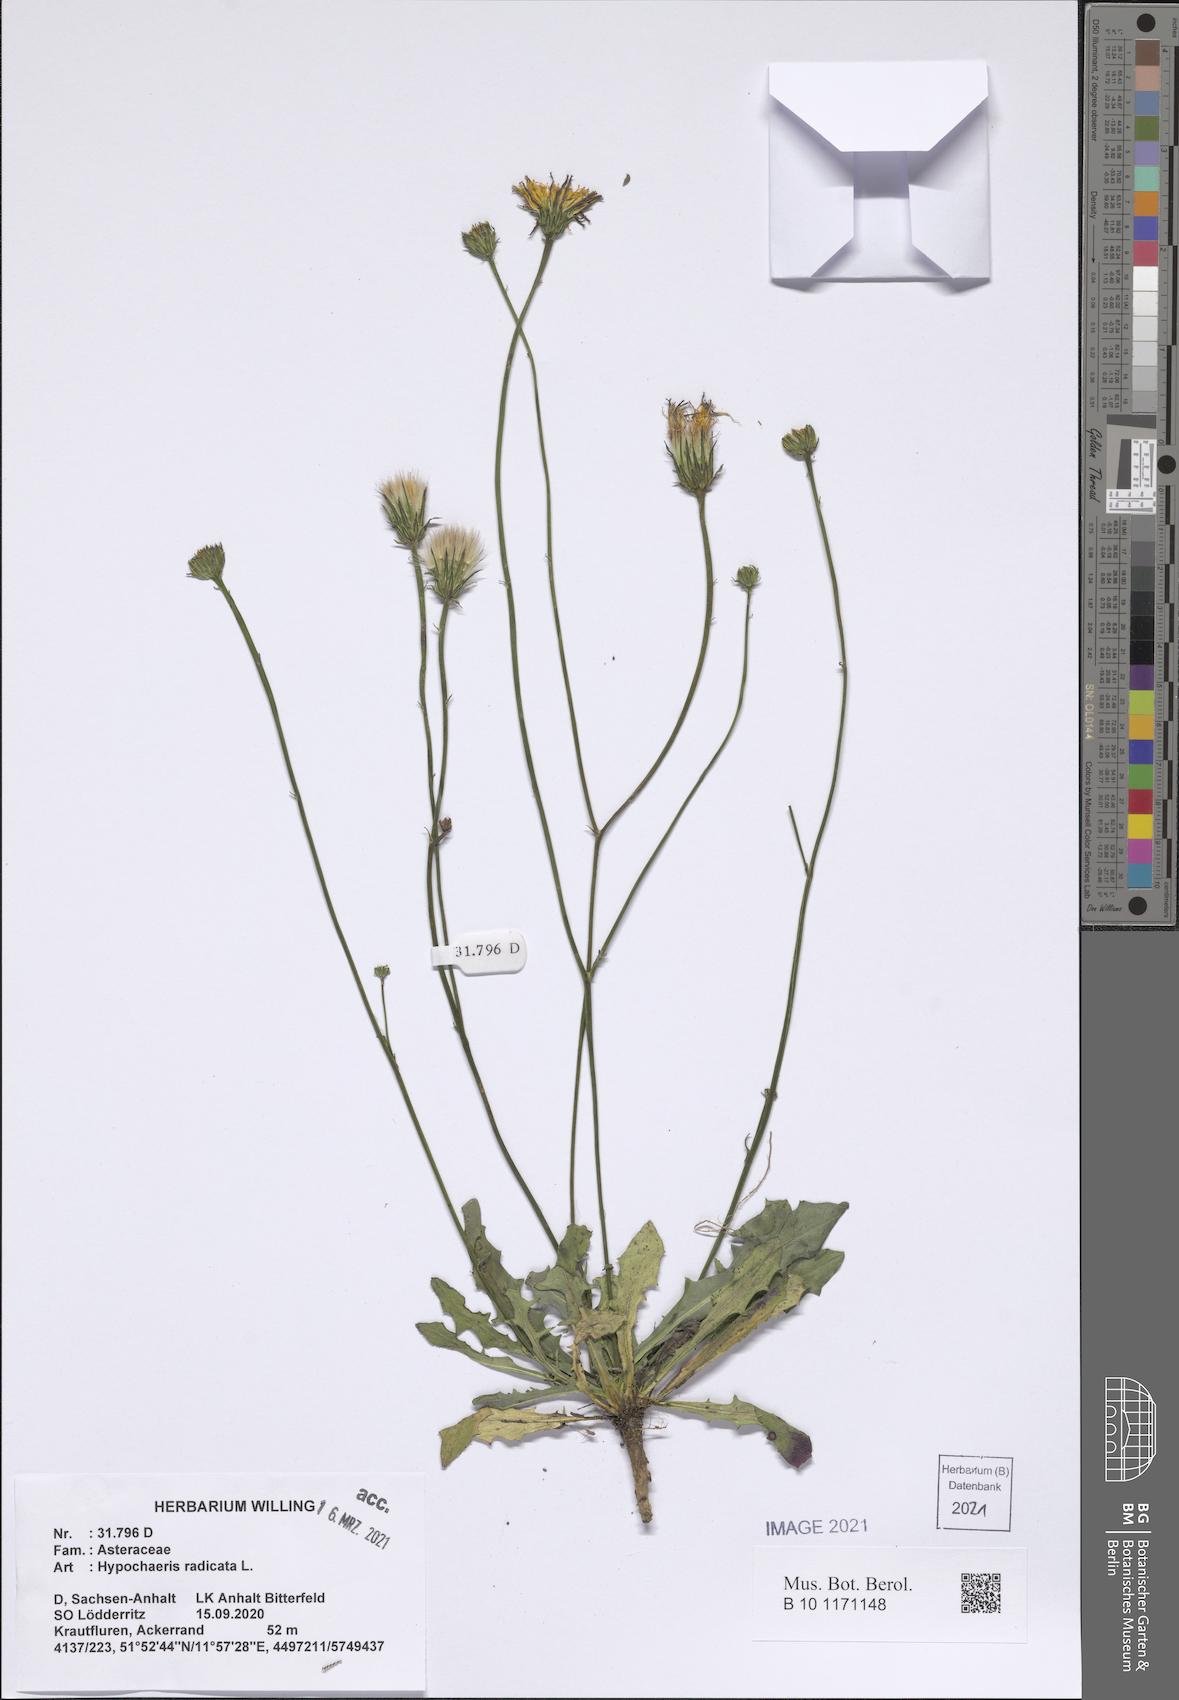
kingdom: Plantae
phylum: Tracheophyta
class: Magnoliopsida
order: Asterales
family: Asteraceae
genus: Hypochaeris
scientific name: Hypochaeris radicata
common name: Flatweed
